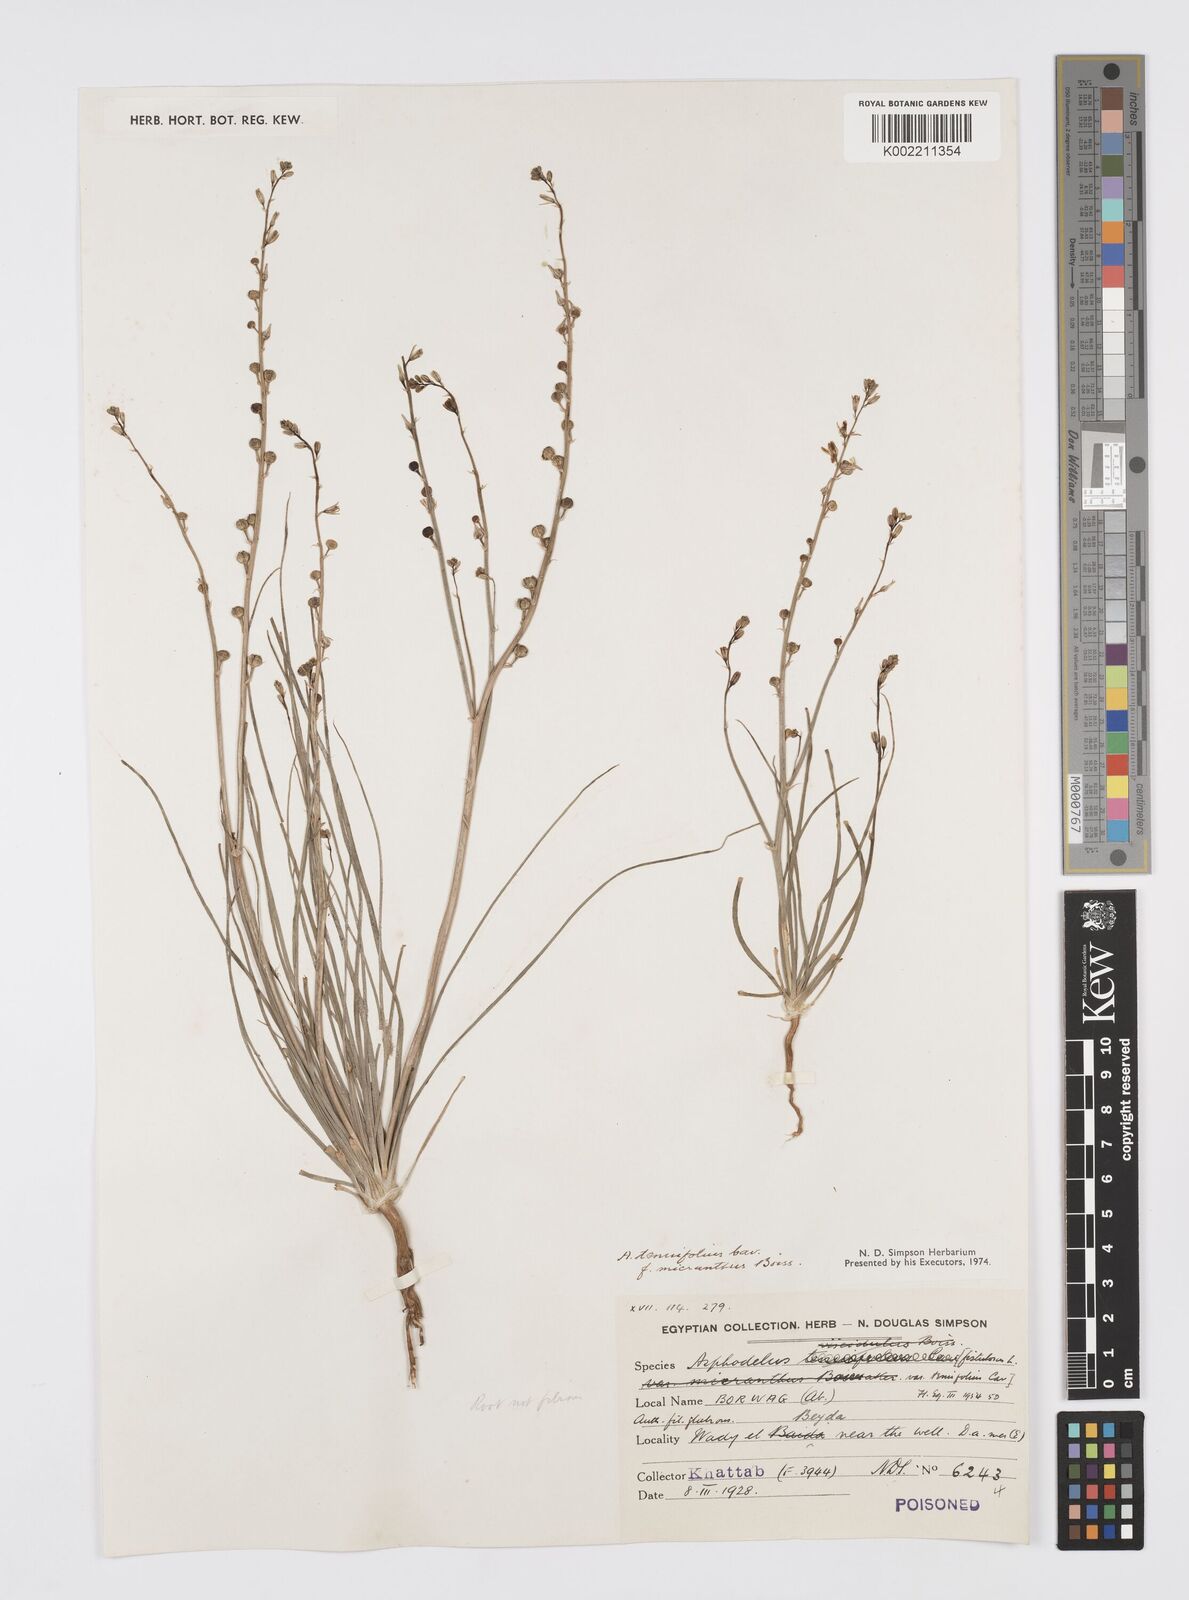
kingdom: Plantae
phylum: Tracheophyta
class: Liliopsida
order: Asparagales
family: Asphodelaceae
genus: Asphodelus
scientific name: Asphodelus tenuifolius
